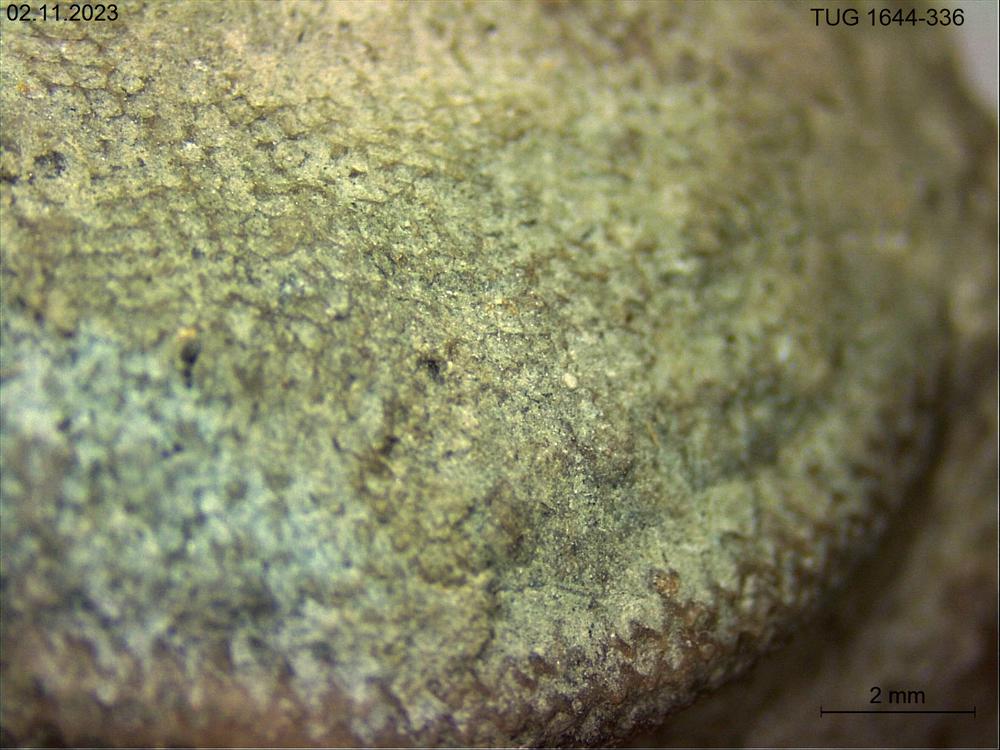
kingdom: Animalia
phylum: Brachiopoda
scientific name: Brachiopoda
